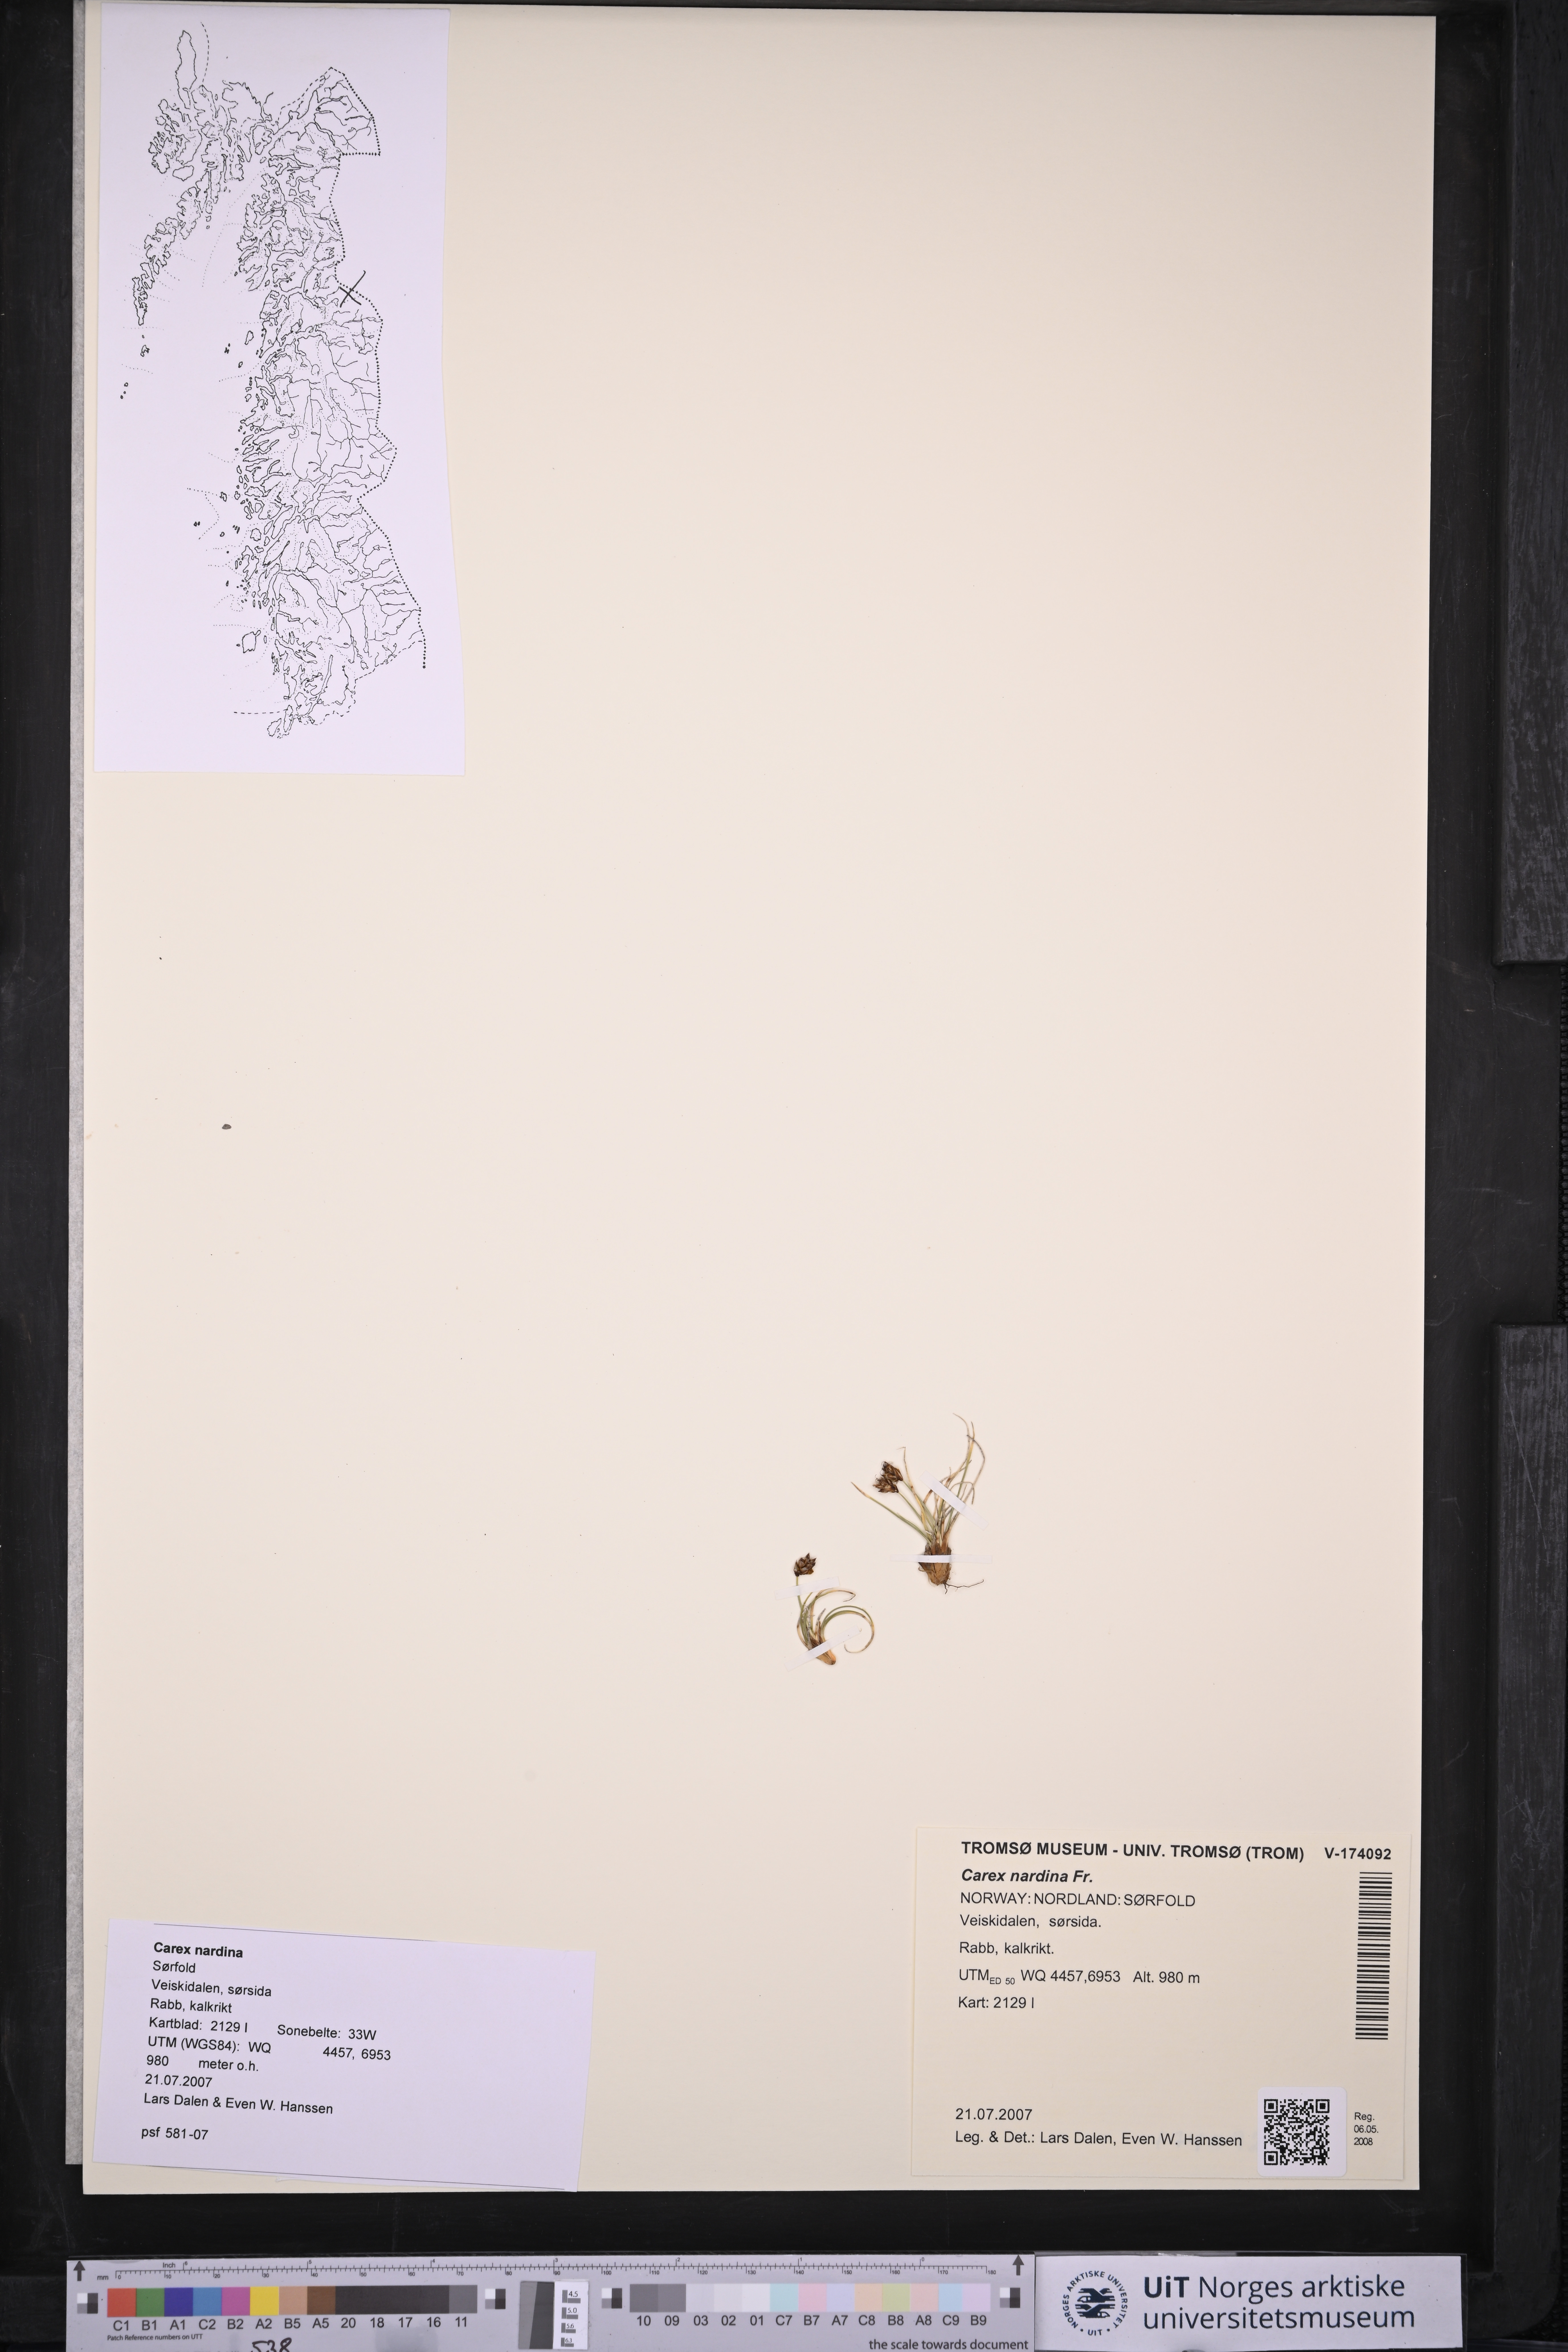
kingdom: Plantae
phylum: Tracheophyta
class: Liliopsida
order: Poales
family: Cyperaceae
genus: Carex
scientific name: Carex nardina
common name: Nard sedge
